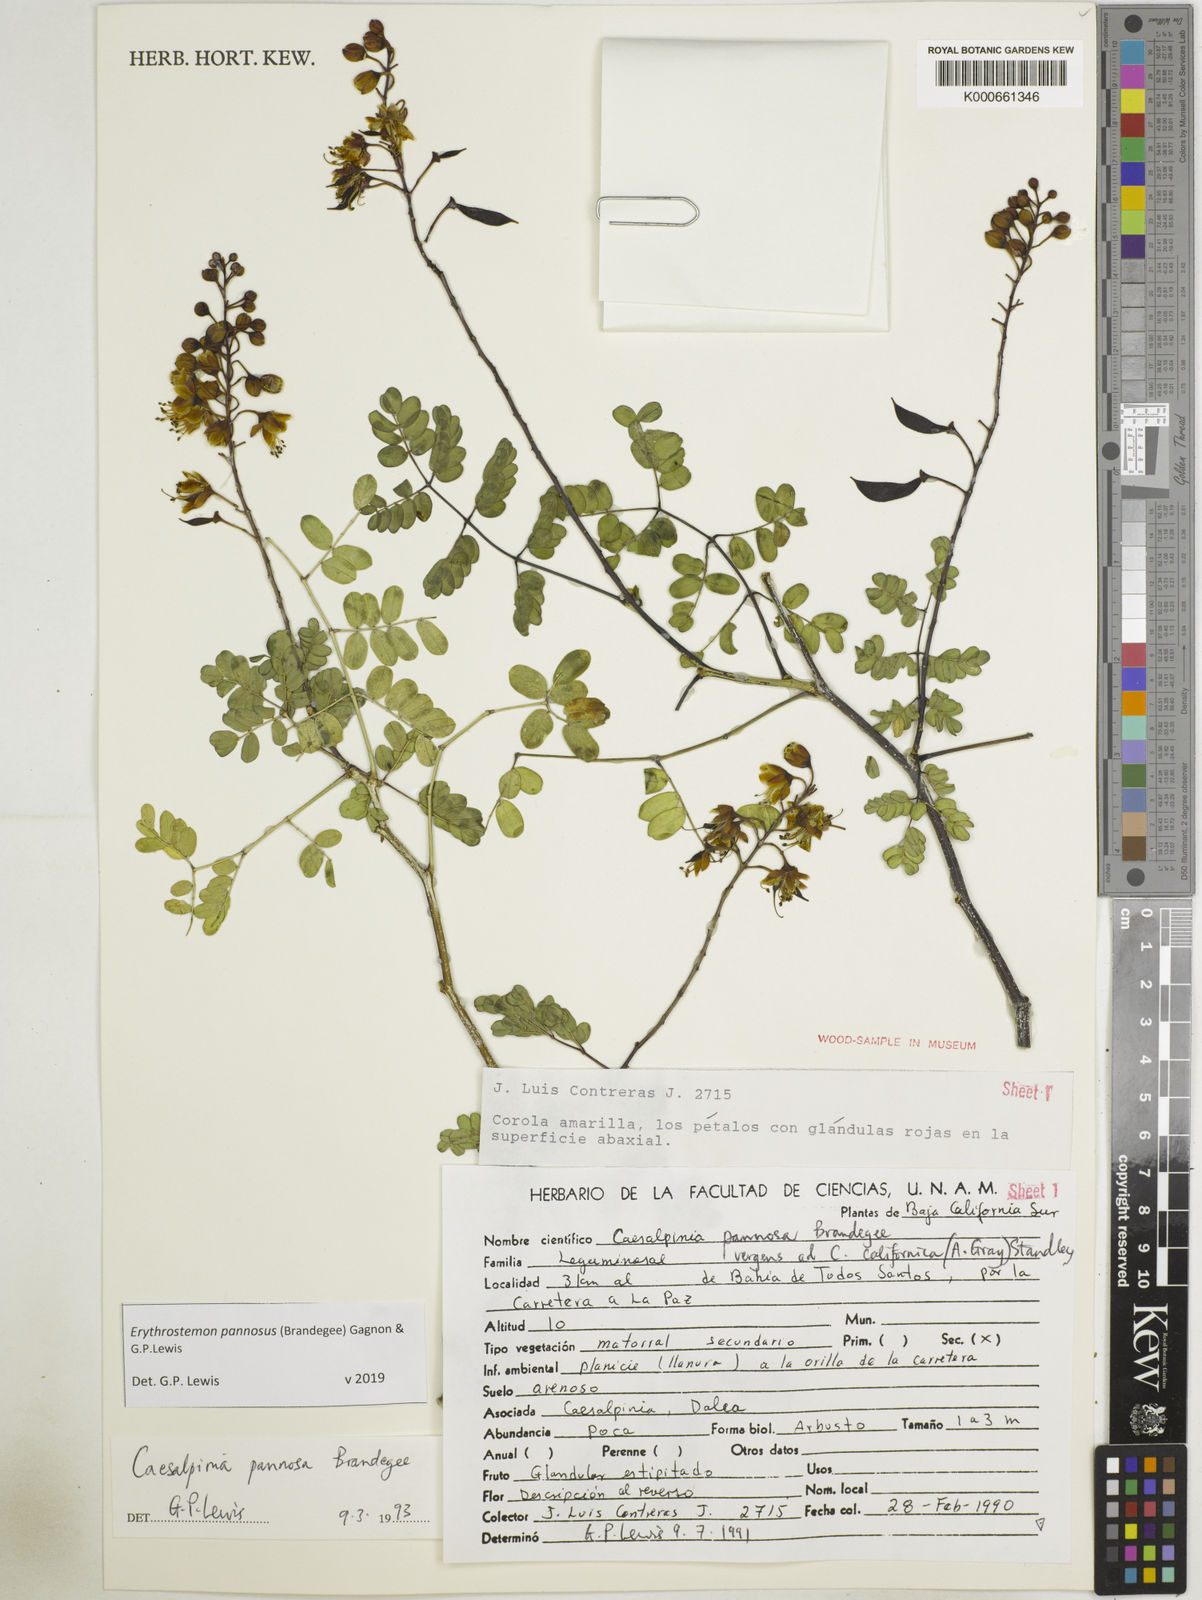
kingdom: Plantae
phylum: Tracheophyta
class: Magnoliopsida
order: Fabales
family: Fabaceae
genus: Erythrostemon
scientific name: Erythrostemon pannosus
